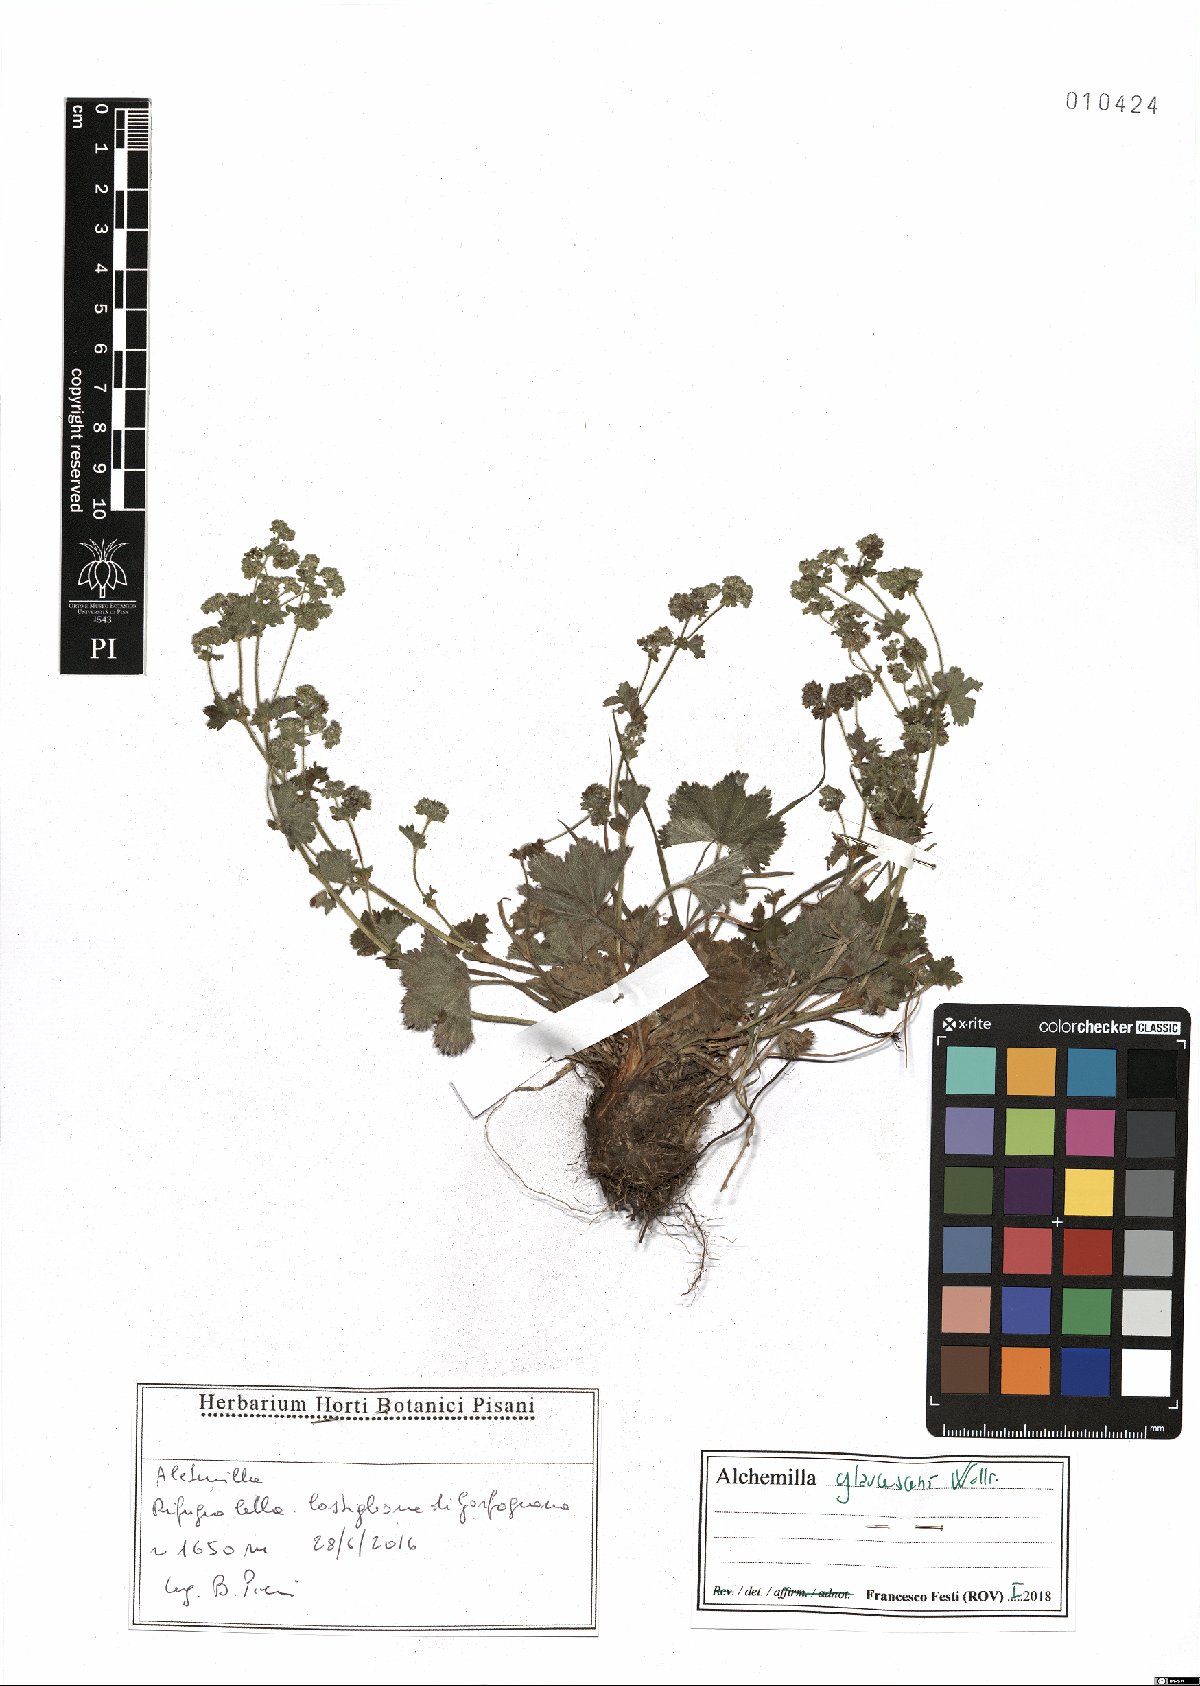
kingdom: Plantae
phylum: Tracheophyta
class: Magnoliopsida
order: Rosales
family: Rosaceae
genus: Alchemilla
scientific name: Alchemilla glaucescens
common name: Silky lady's mantle
